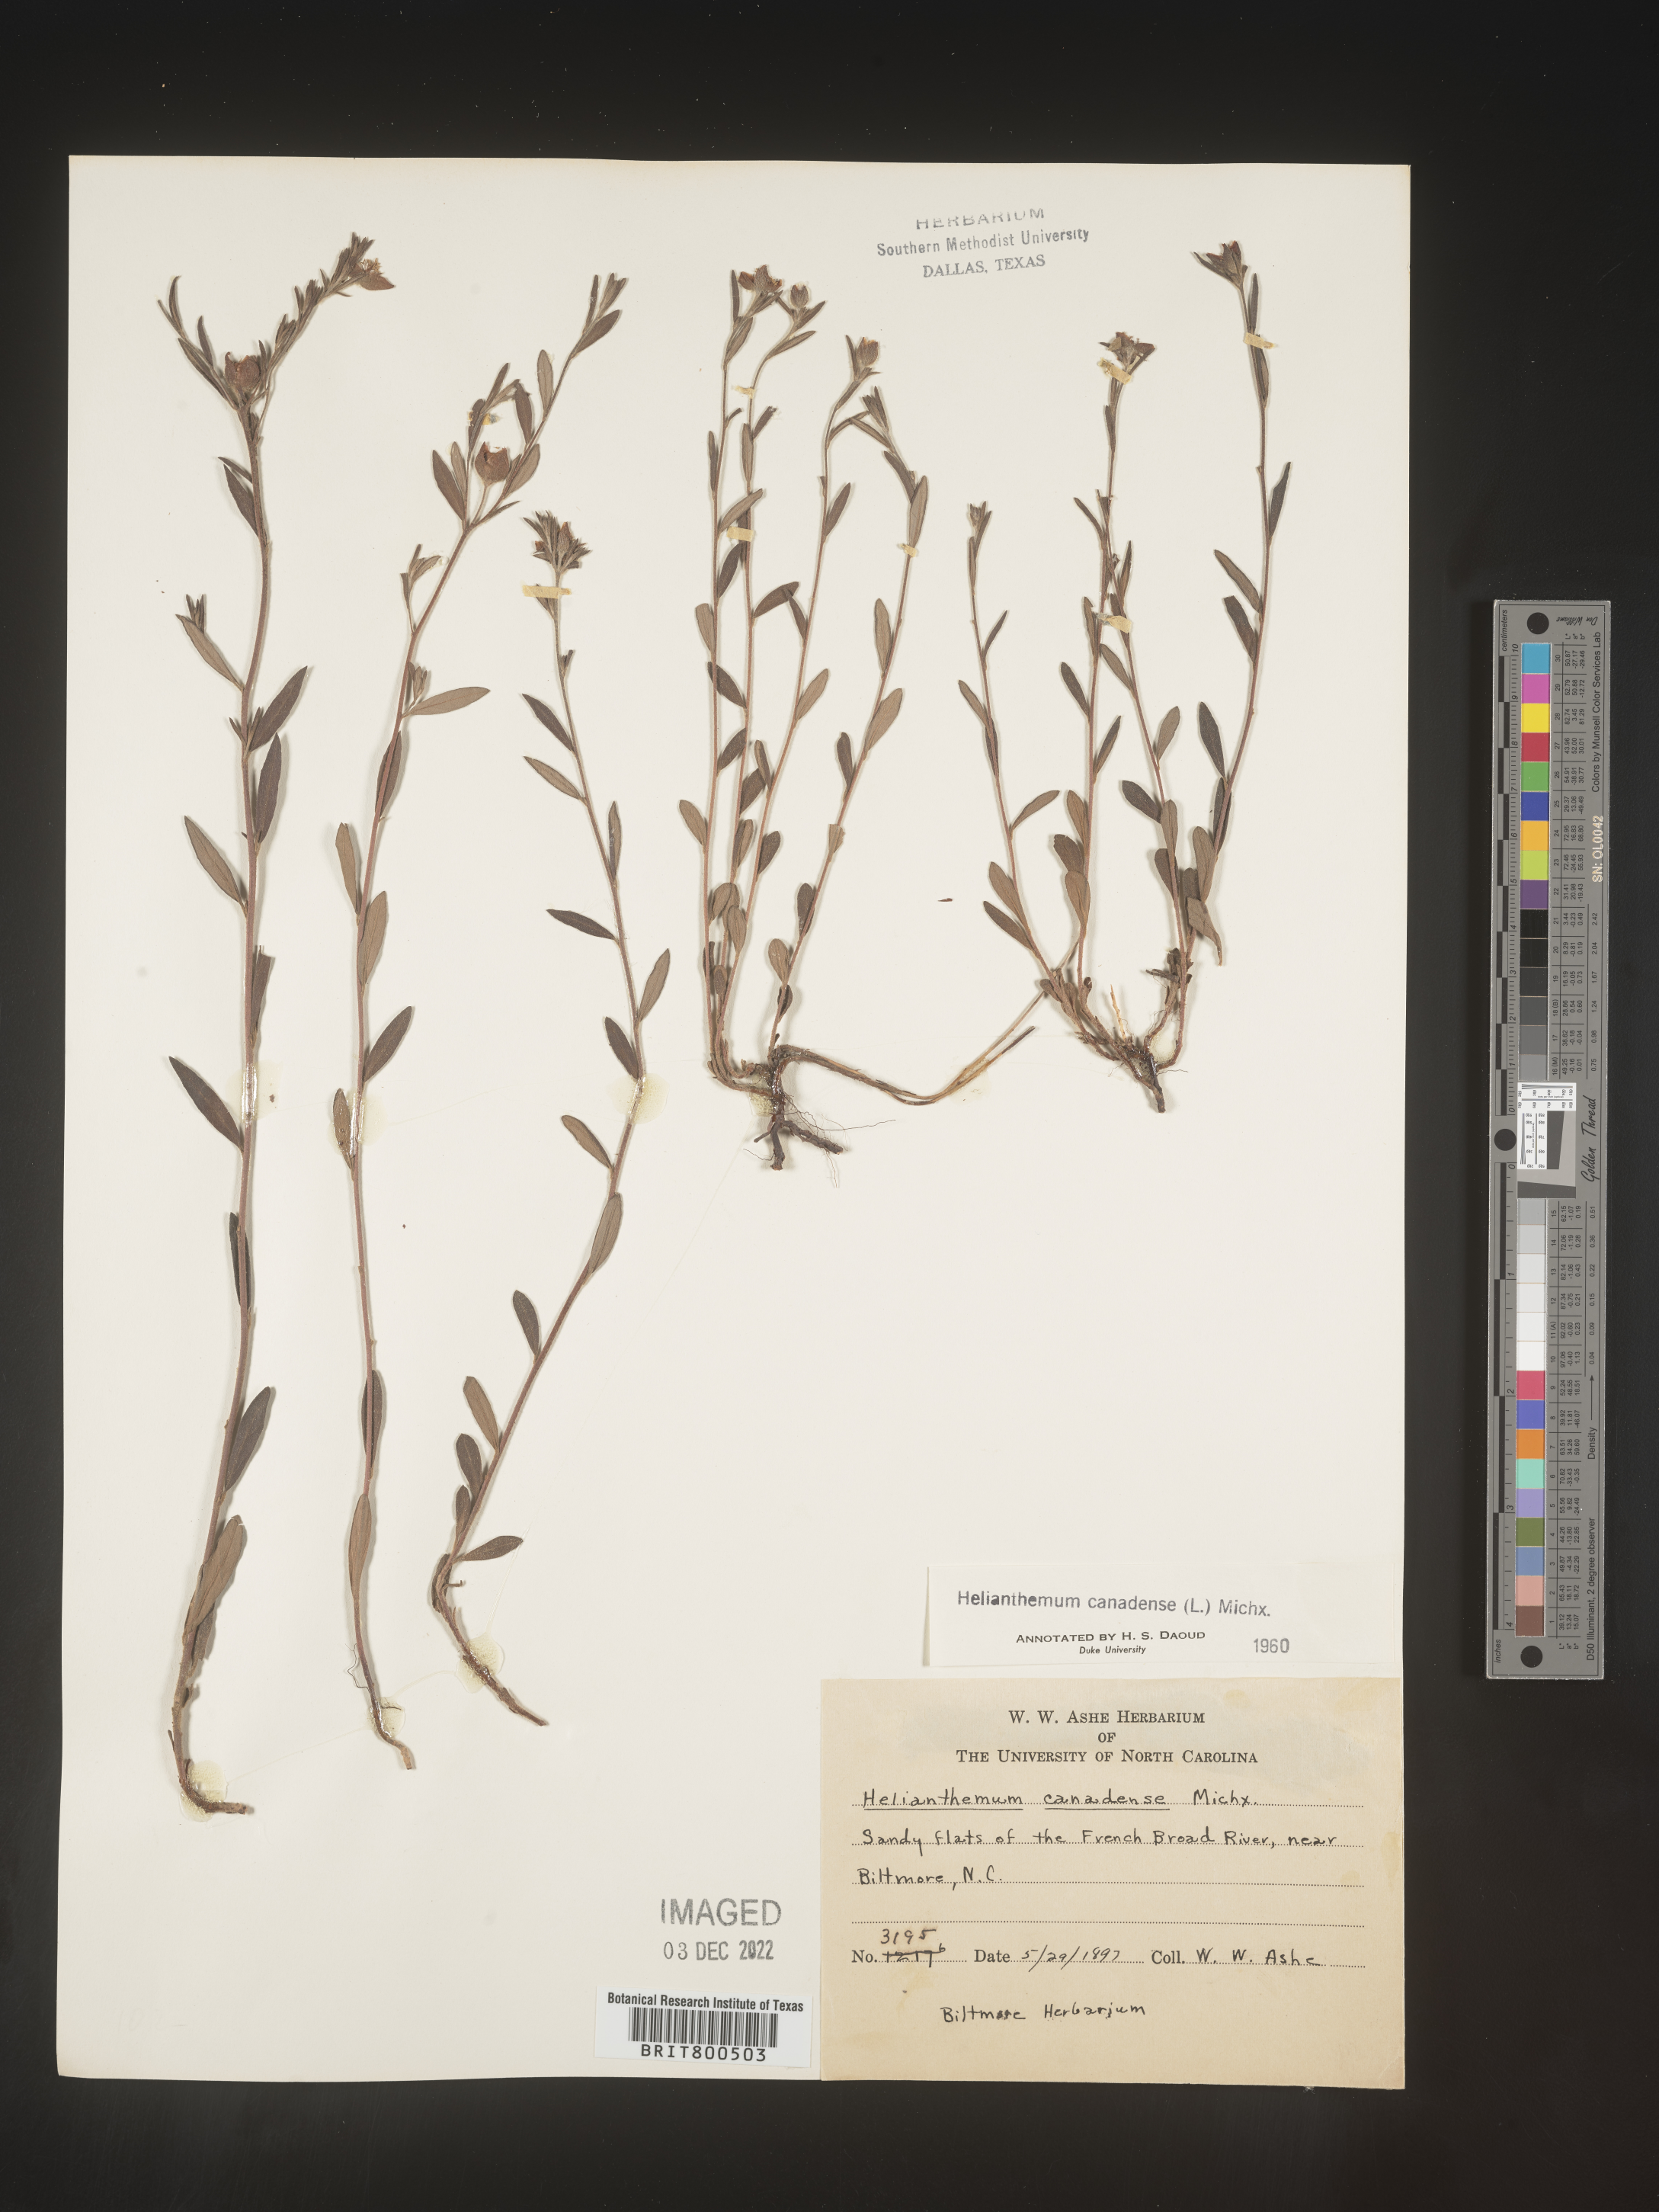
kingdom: Plantae
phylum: Tracheophyta
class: Magnoliopsida
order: Malvales
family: Cistaceae
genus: Crocanthemum
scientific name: Crocanthemum canadense
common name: Canada frostweed
